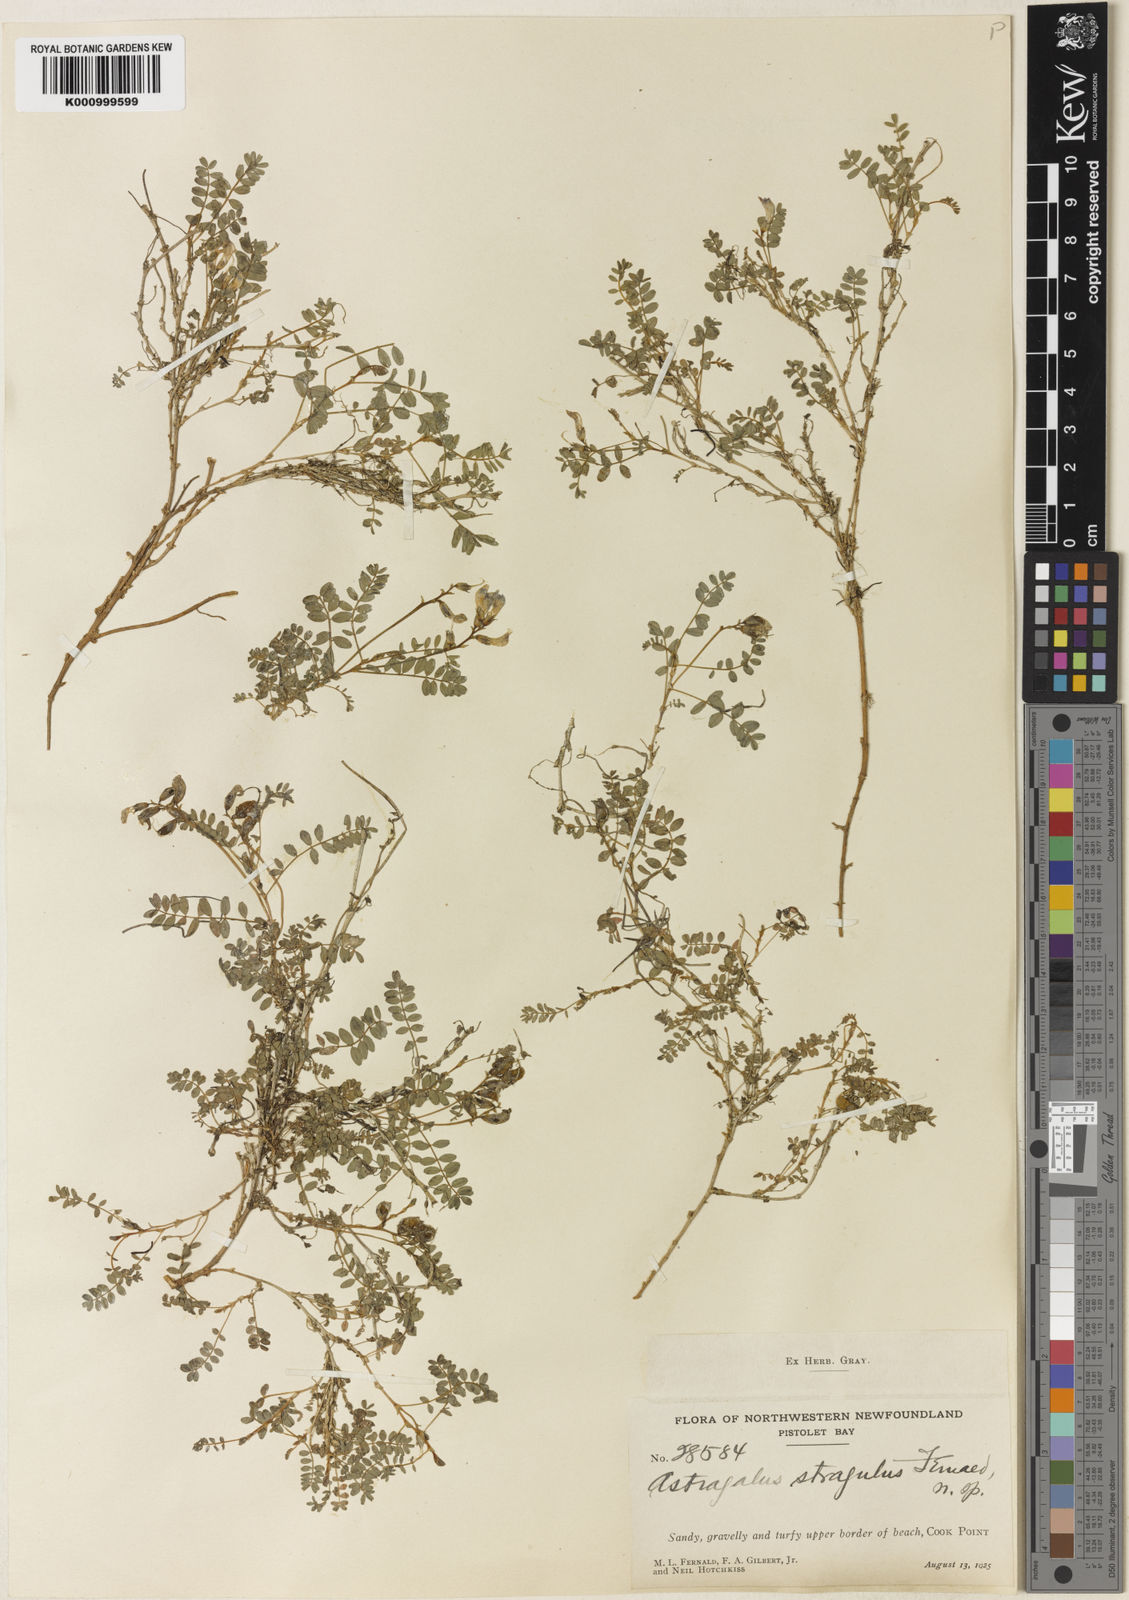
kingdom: Plantae
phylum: Tracheophyta
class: Magnoliopsida
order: Fabales
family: Fabaceae
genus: Astragalus
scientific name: Astragalus bodinii
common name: Bodin's milk-vetch
